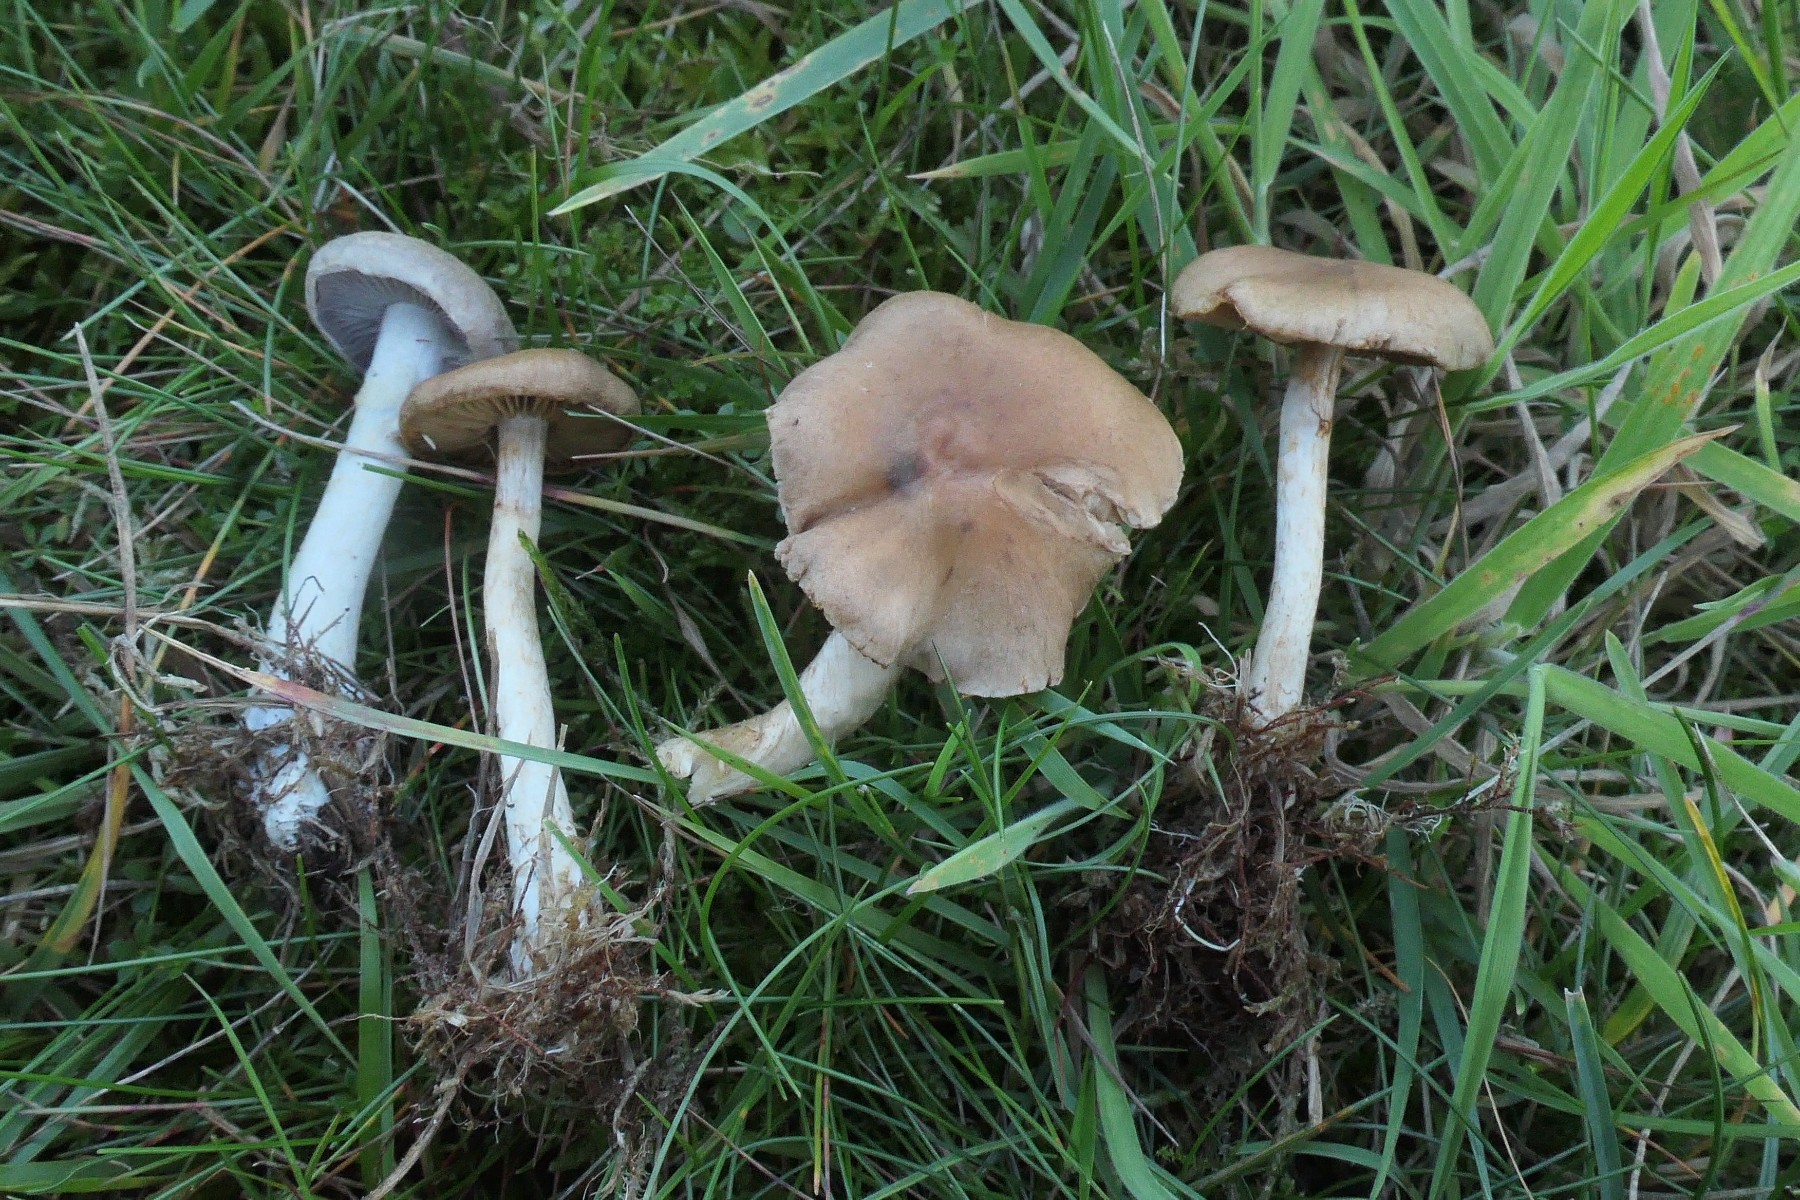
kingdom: Fungi
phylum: Basidiomycota
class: Agaricomycetes
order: Agaricales
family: Cortinariaceae
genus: Cortinarius
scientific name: Cortinarius delibutus
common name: gul slørhat
